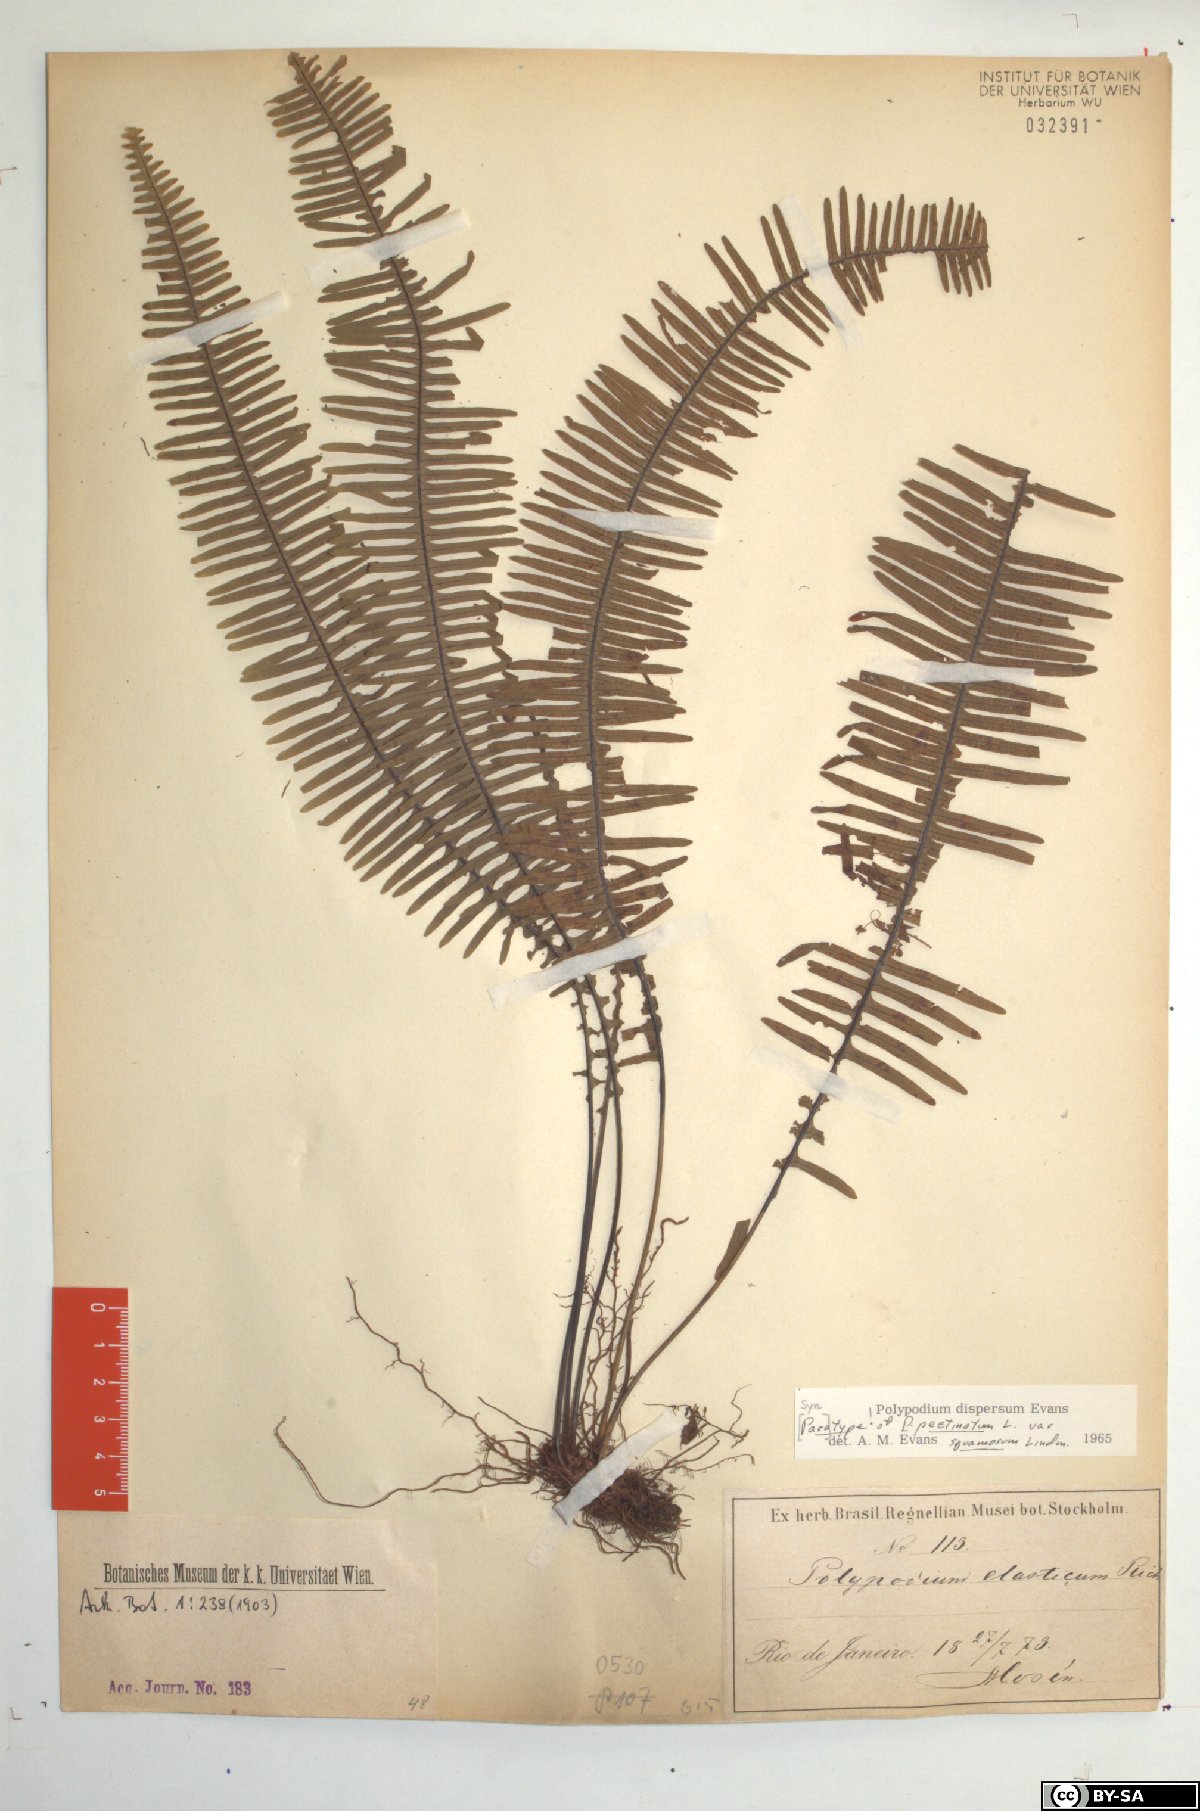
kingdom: Plantae
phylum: Tracheophyta
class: Polypodiopsida
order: Polypodiales
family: Polypodiaceae
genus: Pecluma
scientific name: Pecluma pectinata
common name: Msasa fern
